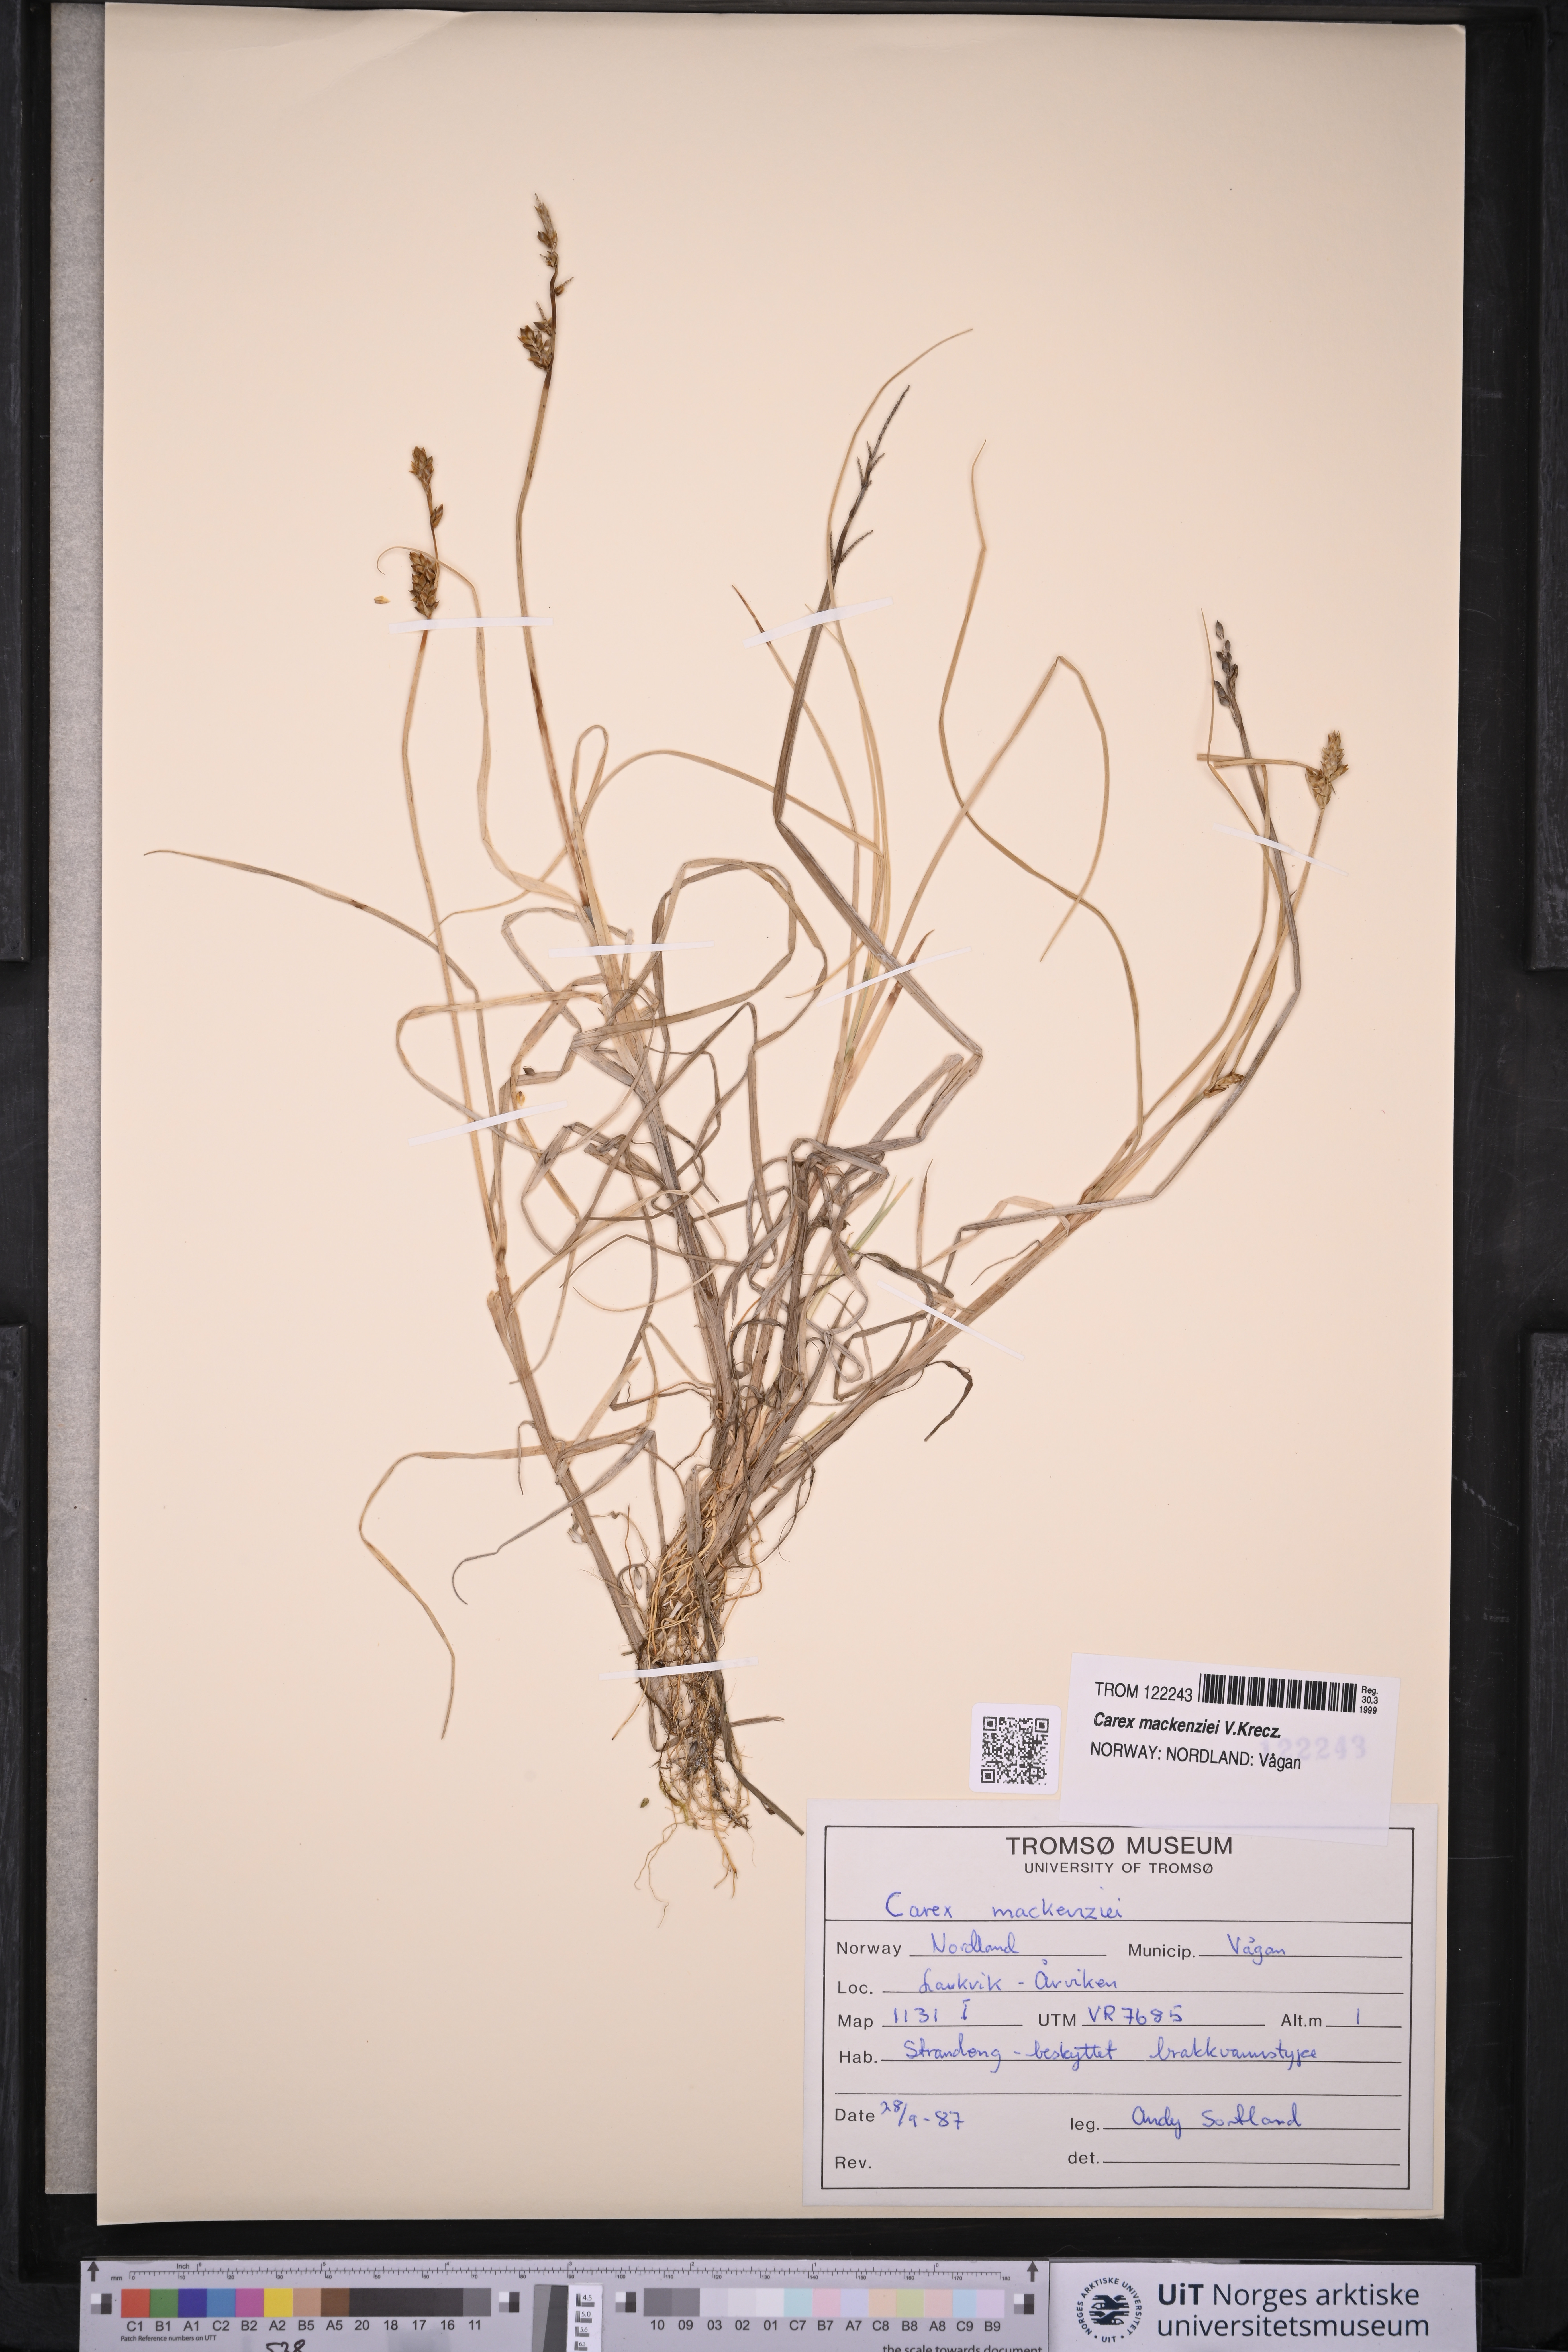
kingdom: Plantae
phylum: Tracheophyta
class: Liliopsida
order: Poales
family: Cyperaceae
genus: Carex
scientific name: Carex mackenziei
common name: Mackenzie's sedge
